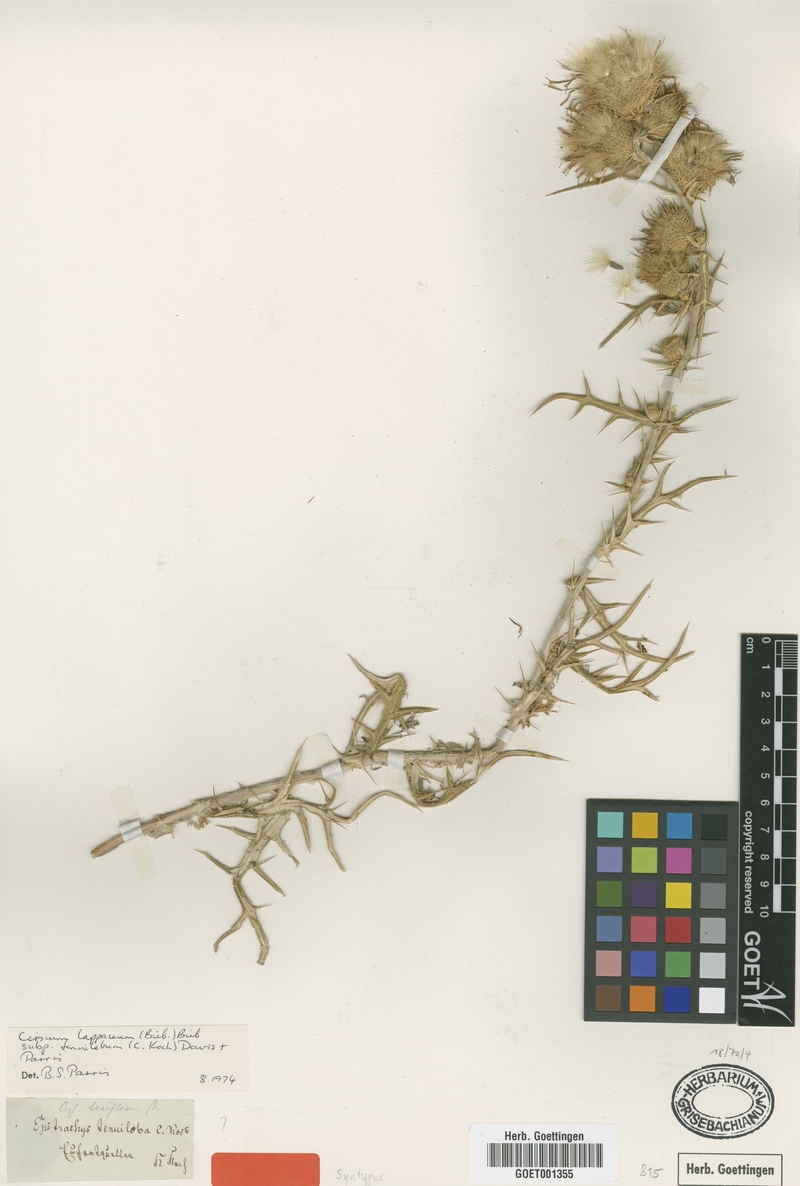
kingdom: Plantae
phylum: Tracheophyta
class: Magnoliopsida
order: Asterales
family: Asteraceae
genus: Lophiolepis
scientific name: Lophiolepis lappacea
